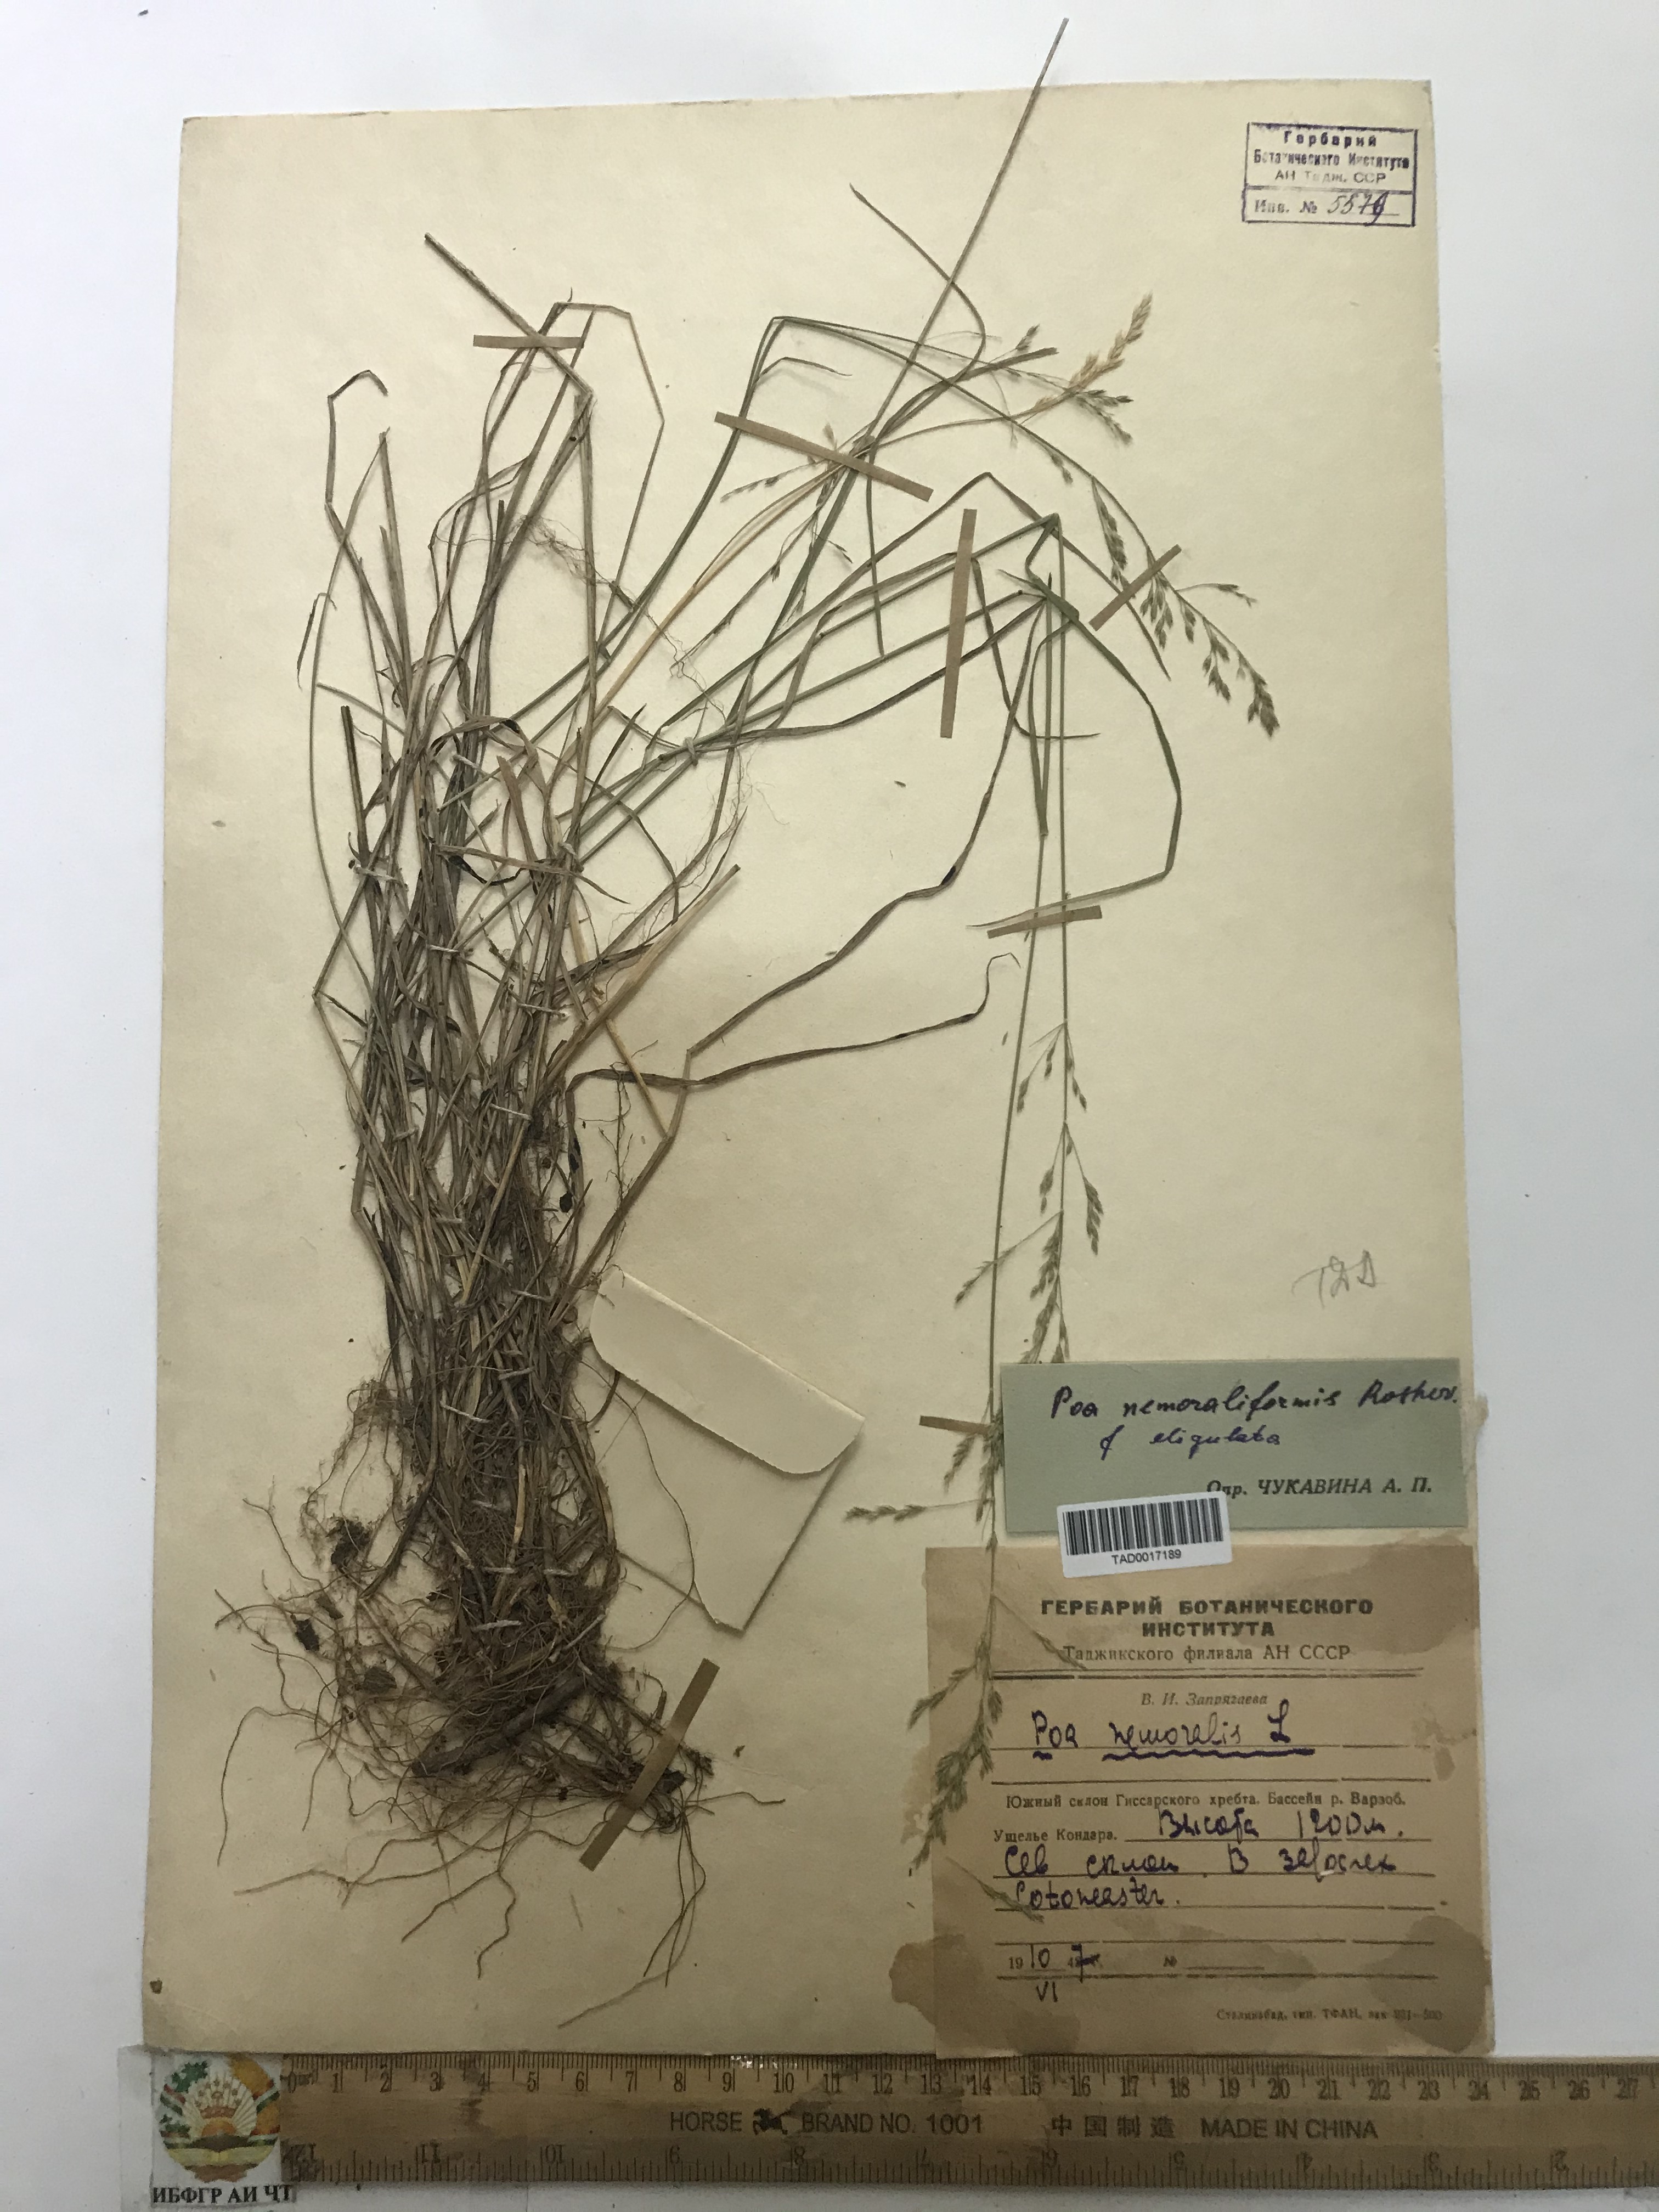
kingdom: Plantae
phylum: Tracheophyta
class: Liliopsida
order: Poales
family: Poaceae
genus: Poa
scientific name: Poa urssulensis
